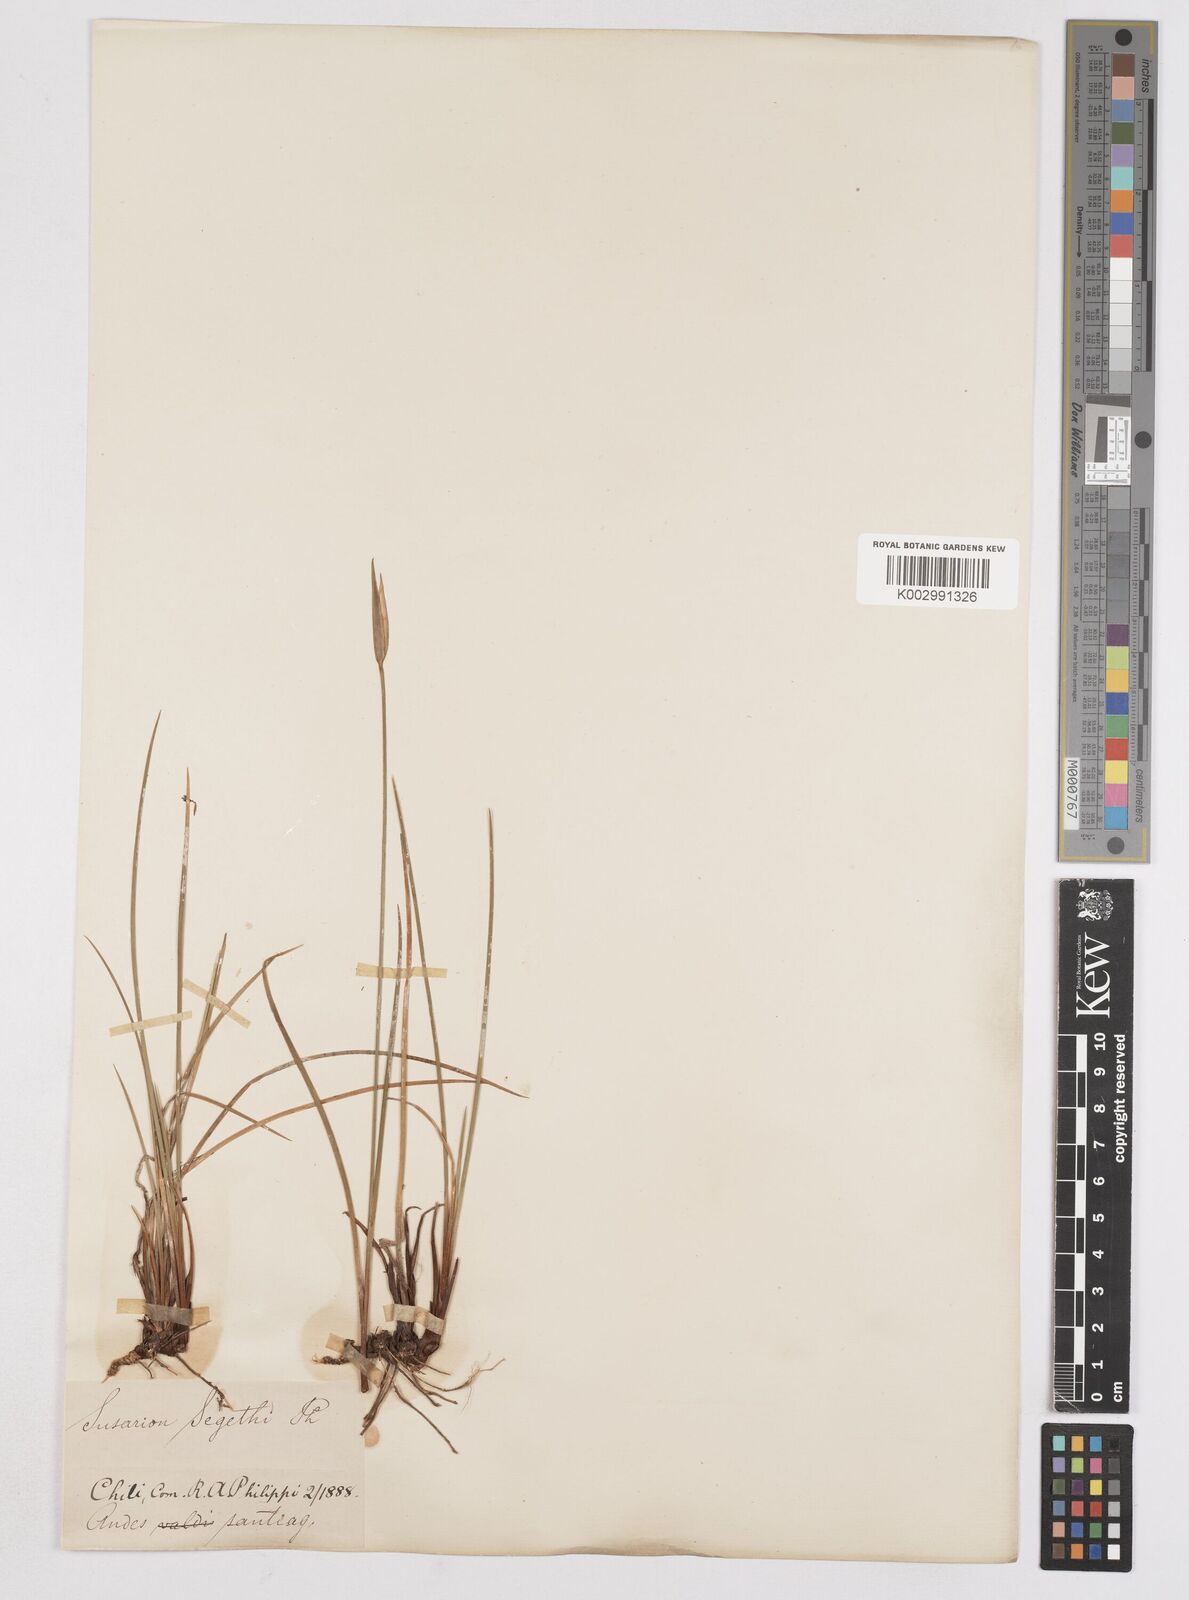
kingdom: Plantae
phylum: Tracheophyta
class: Liliopsida
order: Asparagales
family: Iridaceae
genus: Solenomelus
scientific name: Solenomelus segethi
